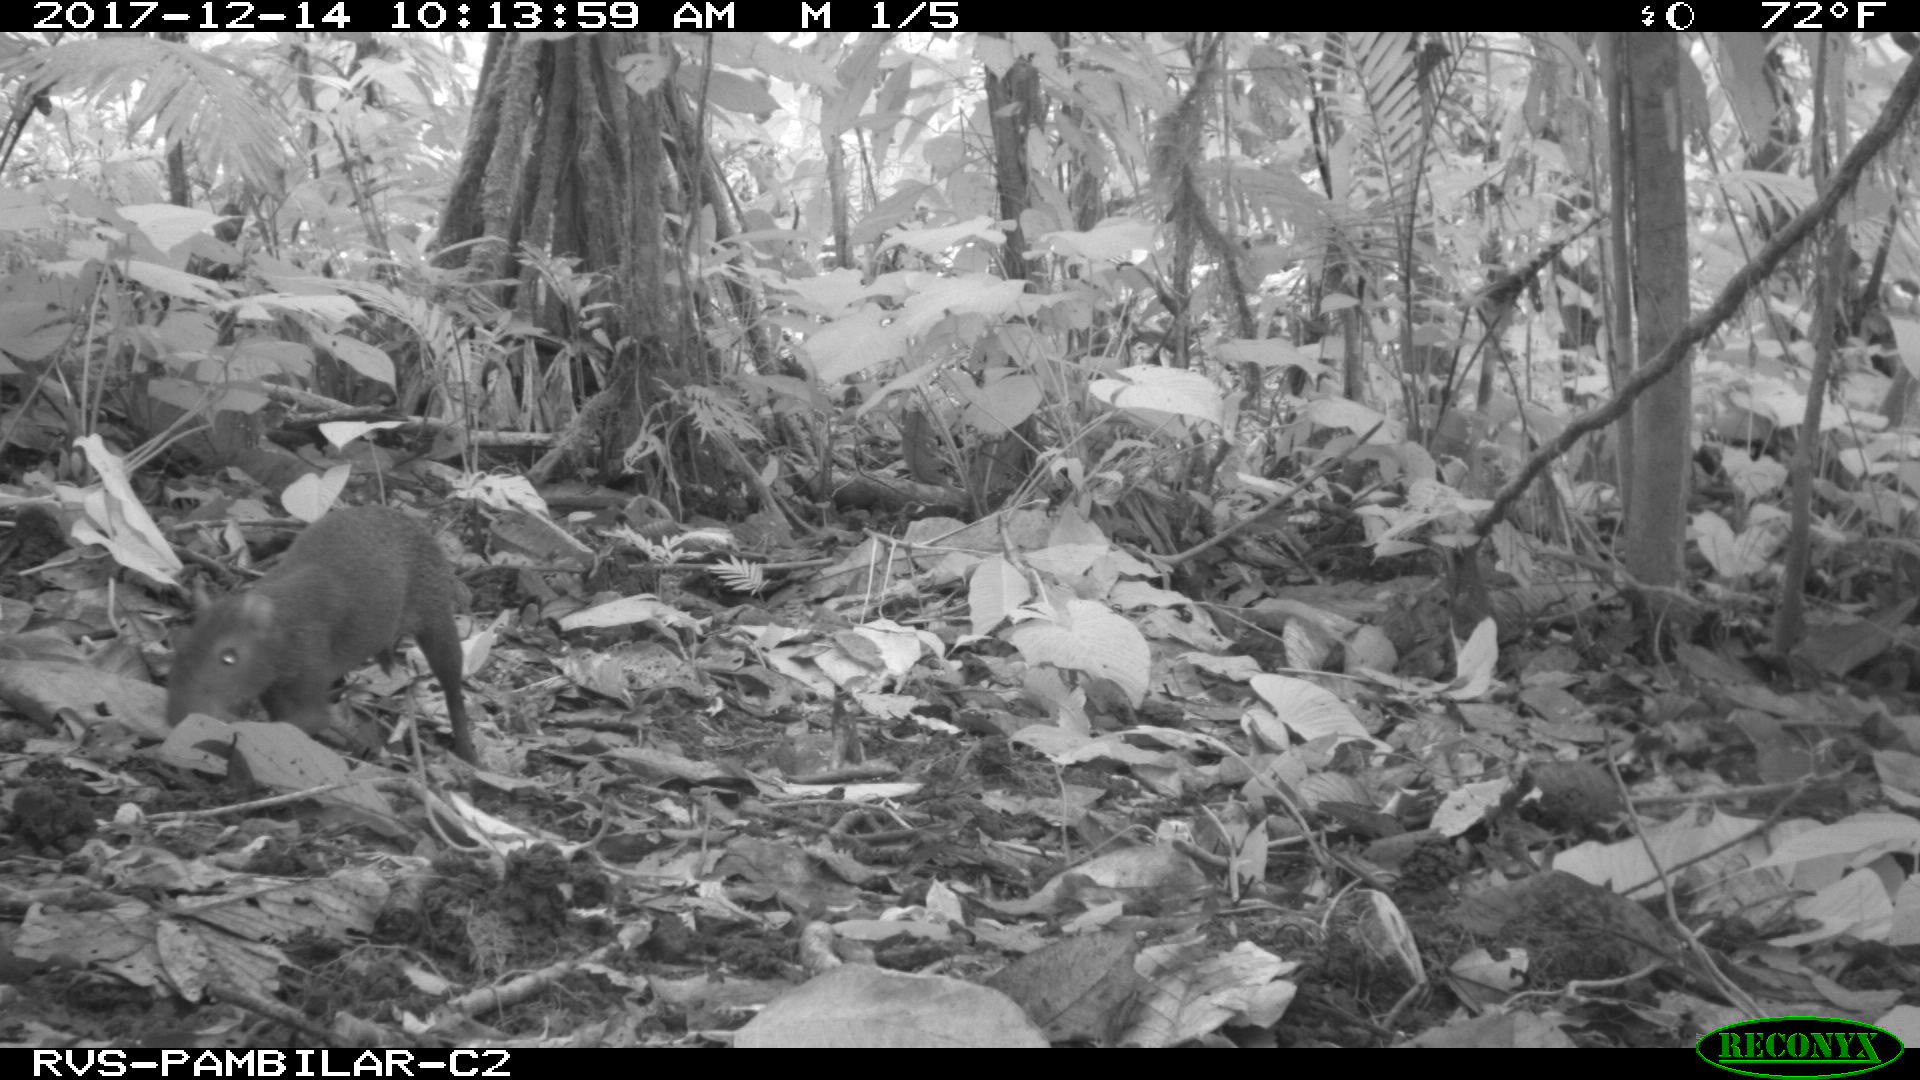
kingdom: Animalia
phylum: Chordata
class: Mammalia
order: Rodentia
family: Dasyproctidae
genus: Dasyprocta
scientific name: Dasyprocta punctata
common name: Central american agouti
